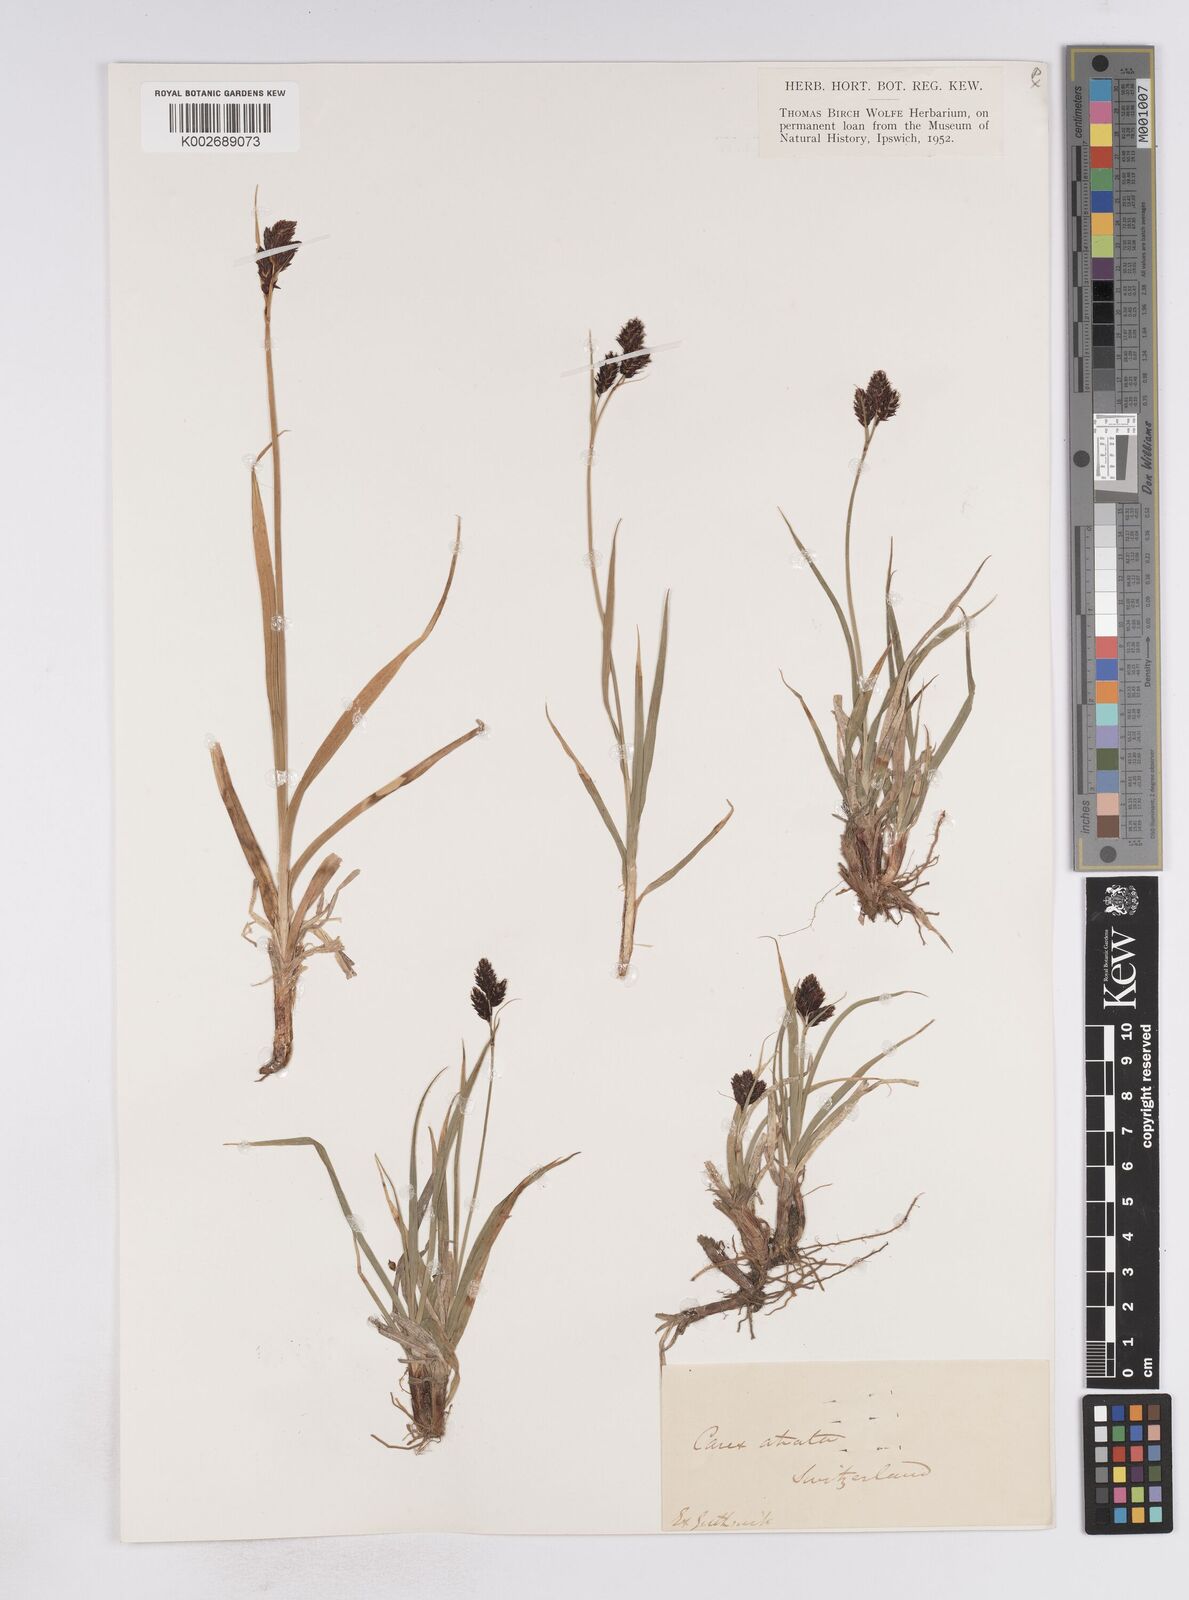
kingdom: Plantae
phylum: Tracheophyta
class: Liliopsida
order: Poales
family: Cyperaceae
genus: Carex
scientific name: Carex atrata
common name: Black alpine sedge
